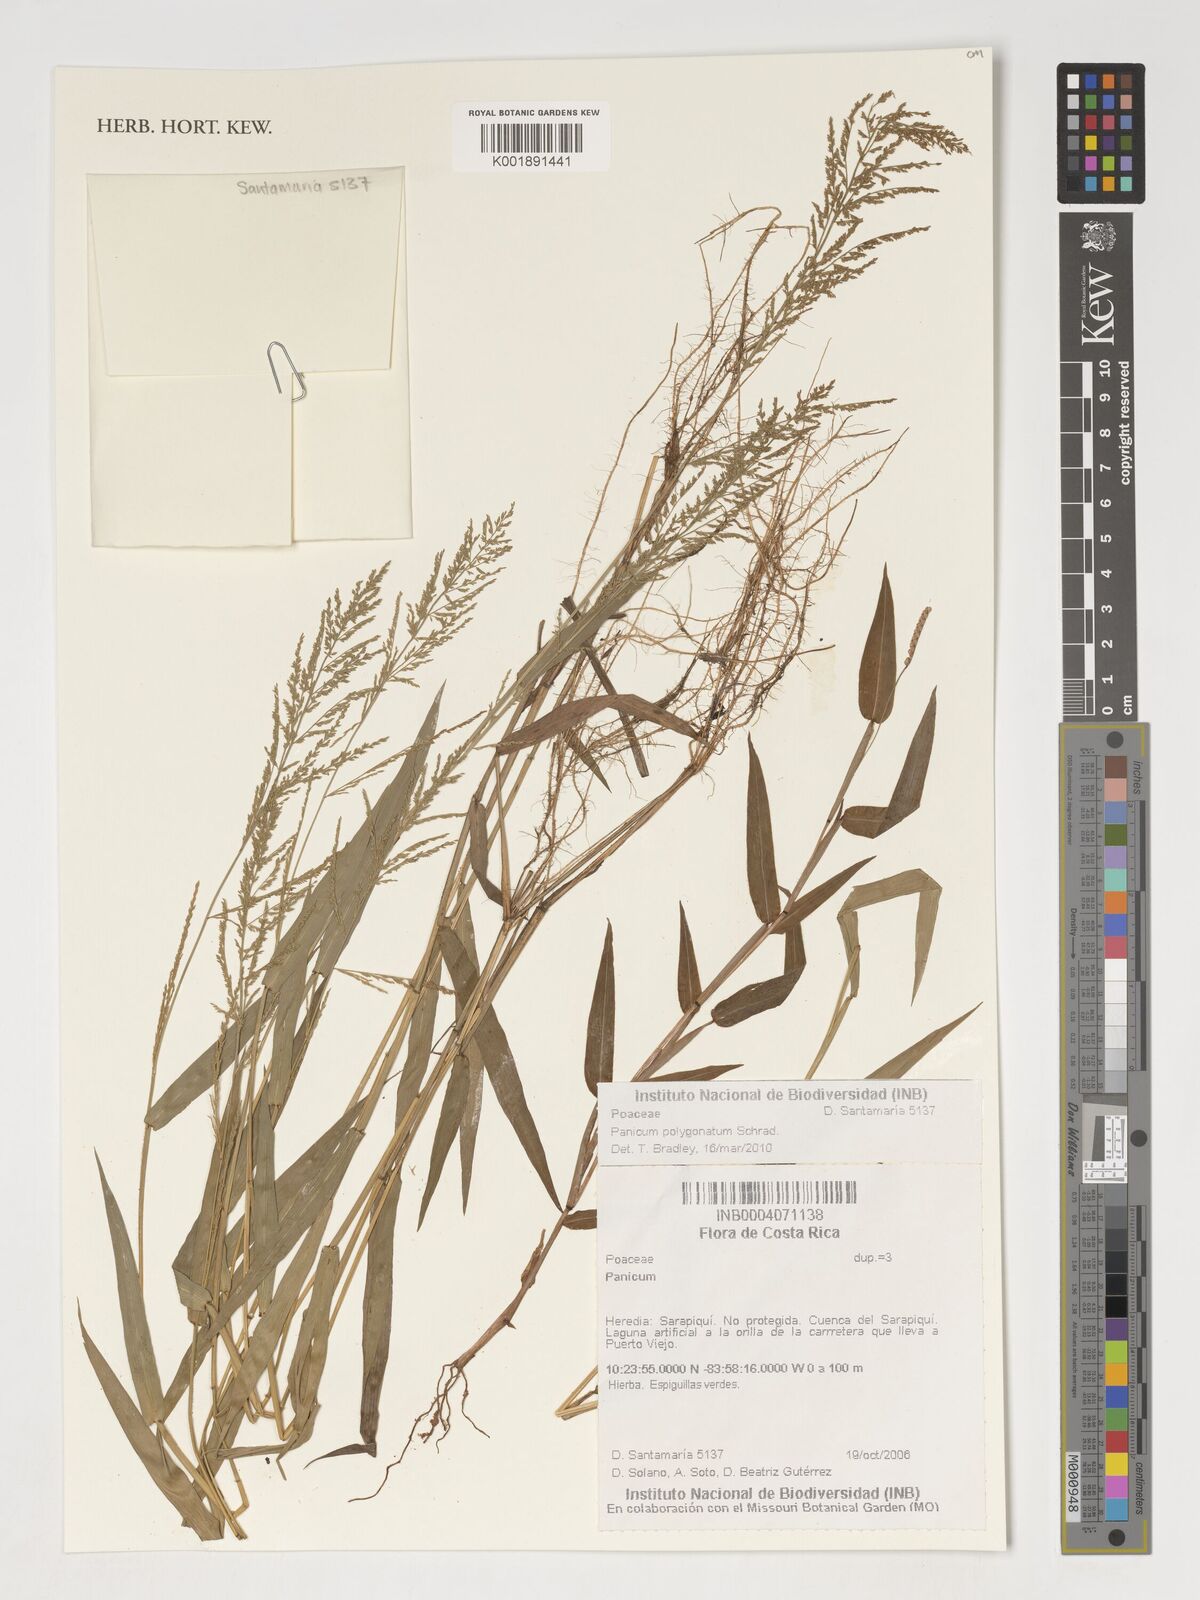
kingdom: Plantae
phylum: Tracheophyta
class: Liliopsida
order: Poales
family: Poaceae
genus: Rugoloa
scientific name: Rugoloa polygonata
